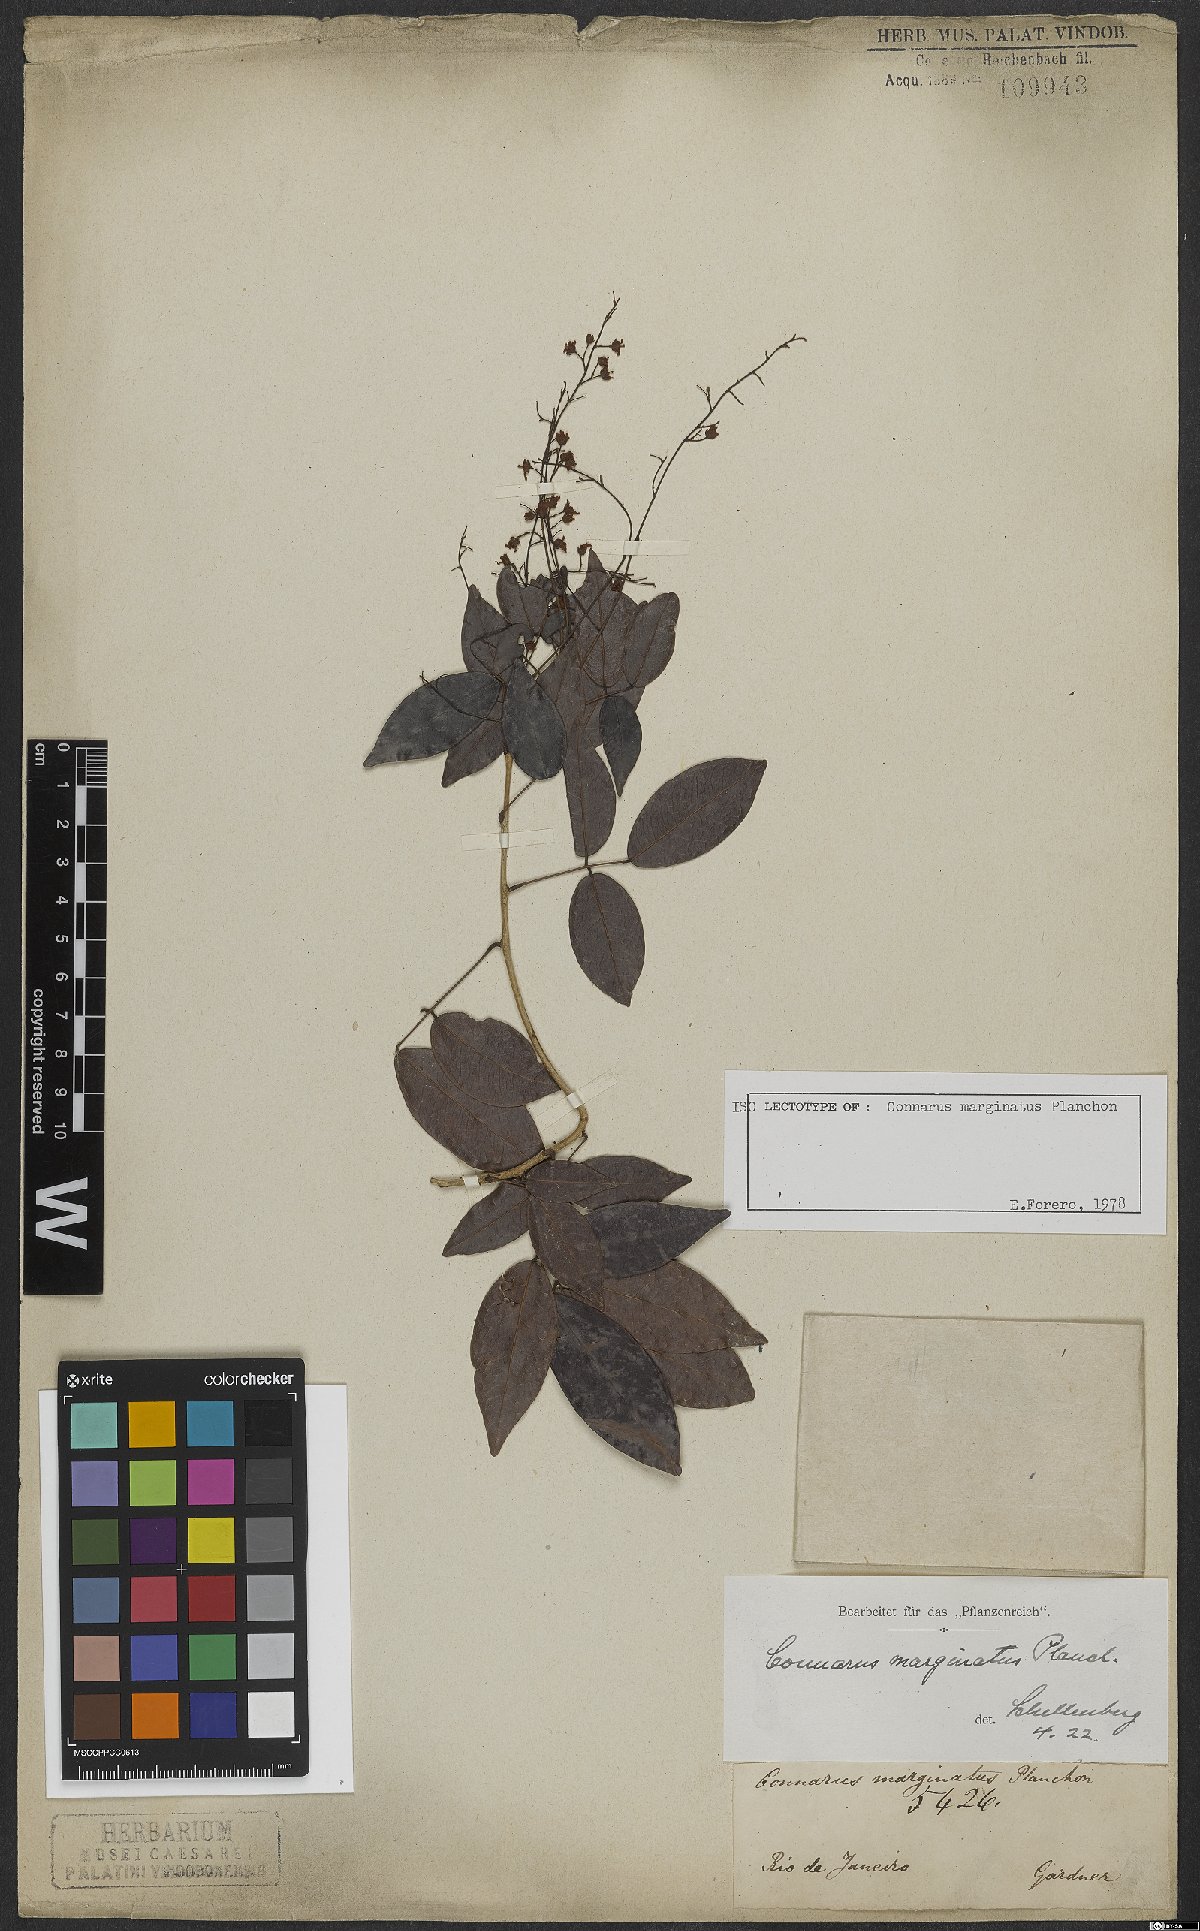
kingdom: Plantae
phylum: Tracheophyta
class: Magnoliopsida
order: Oxalidales
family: Connaraceae
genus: Connarus
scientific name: Connarus marginatus
